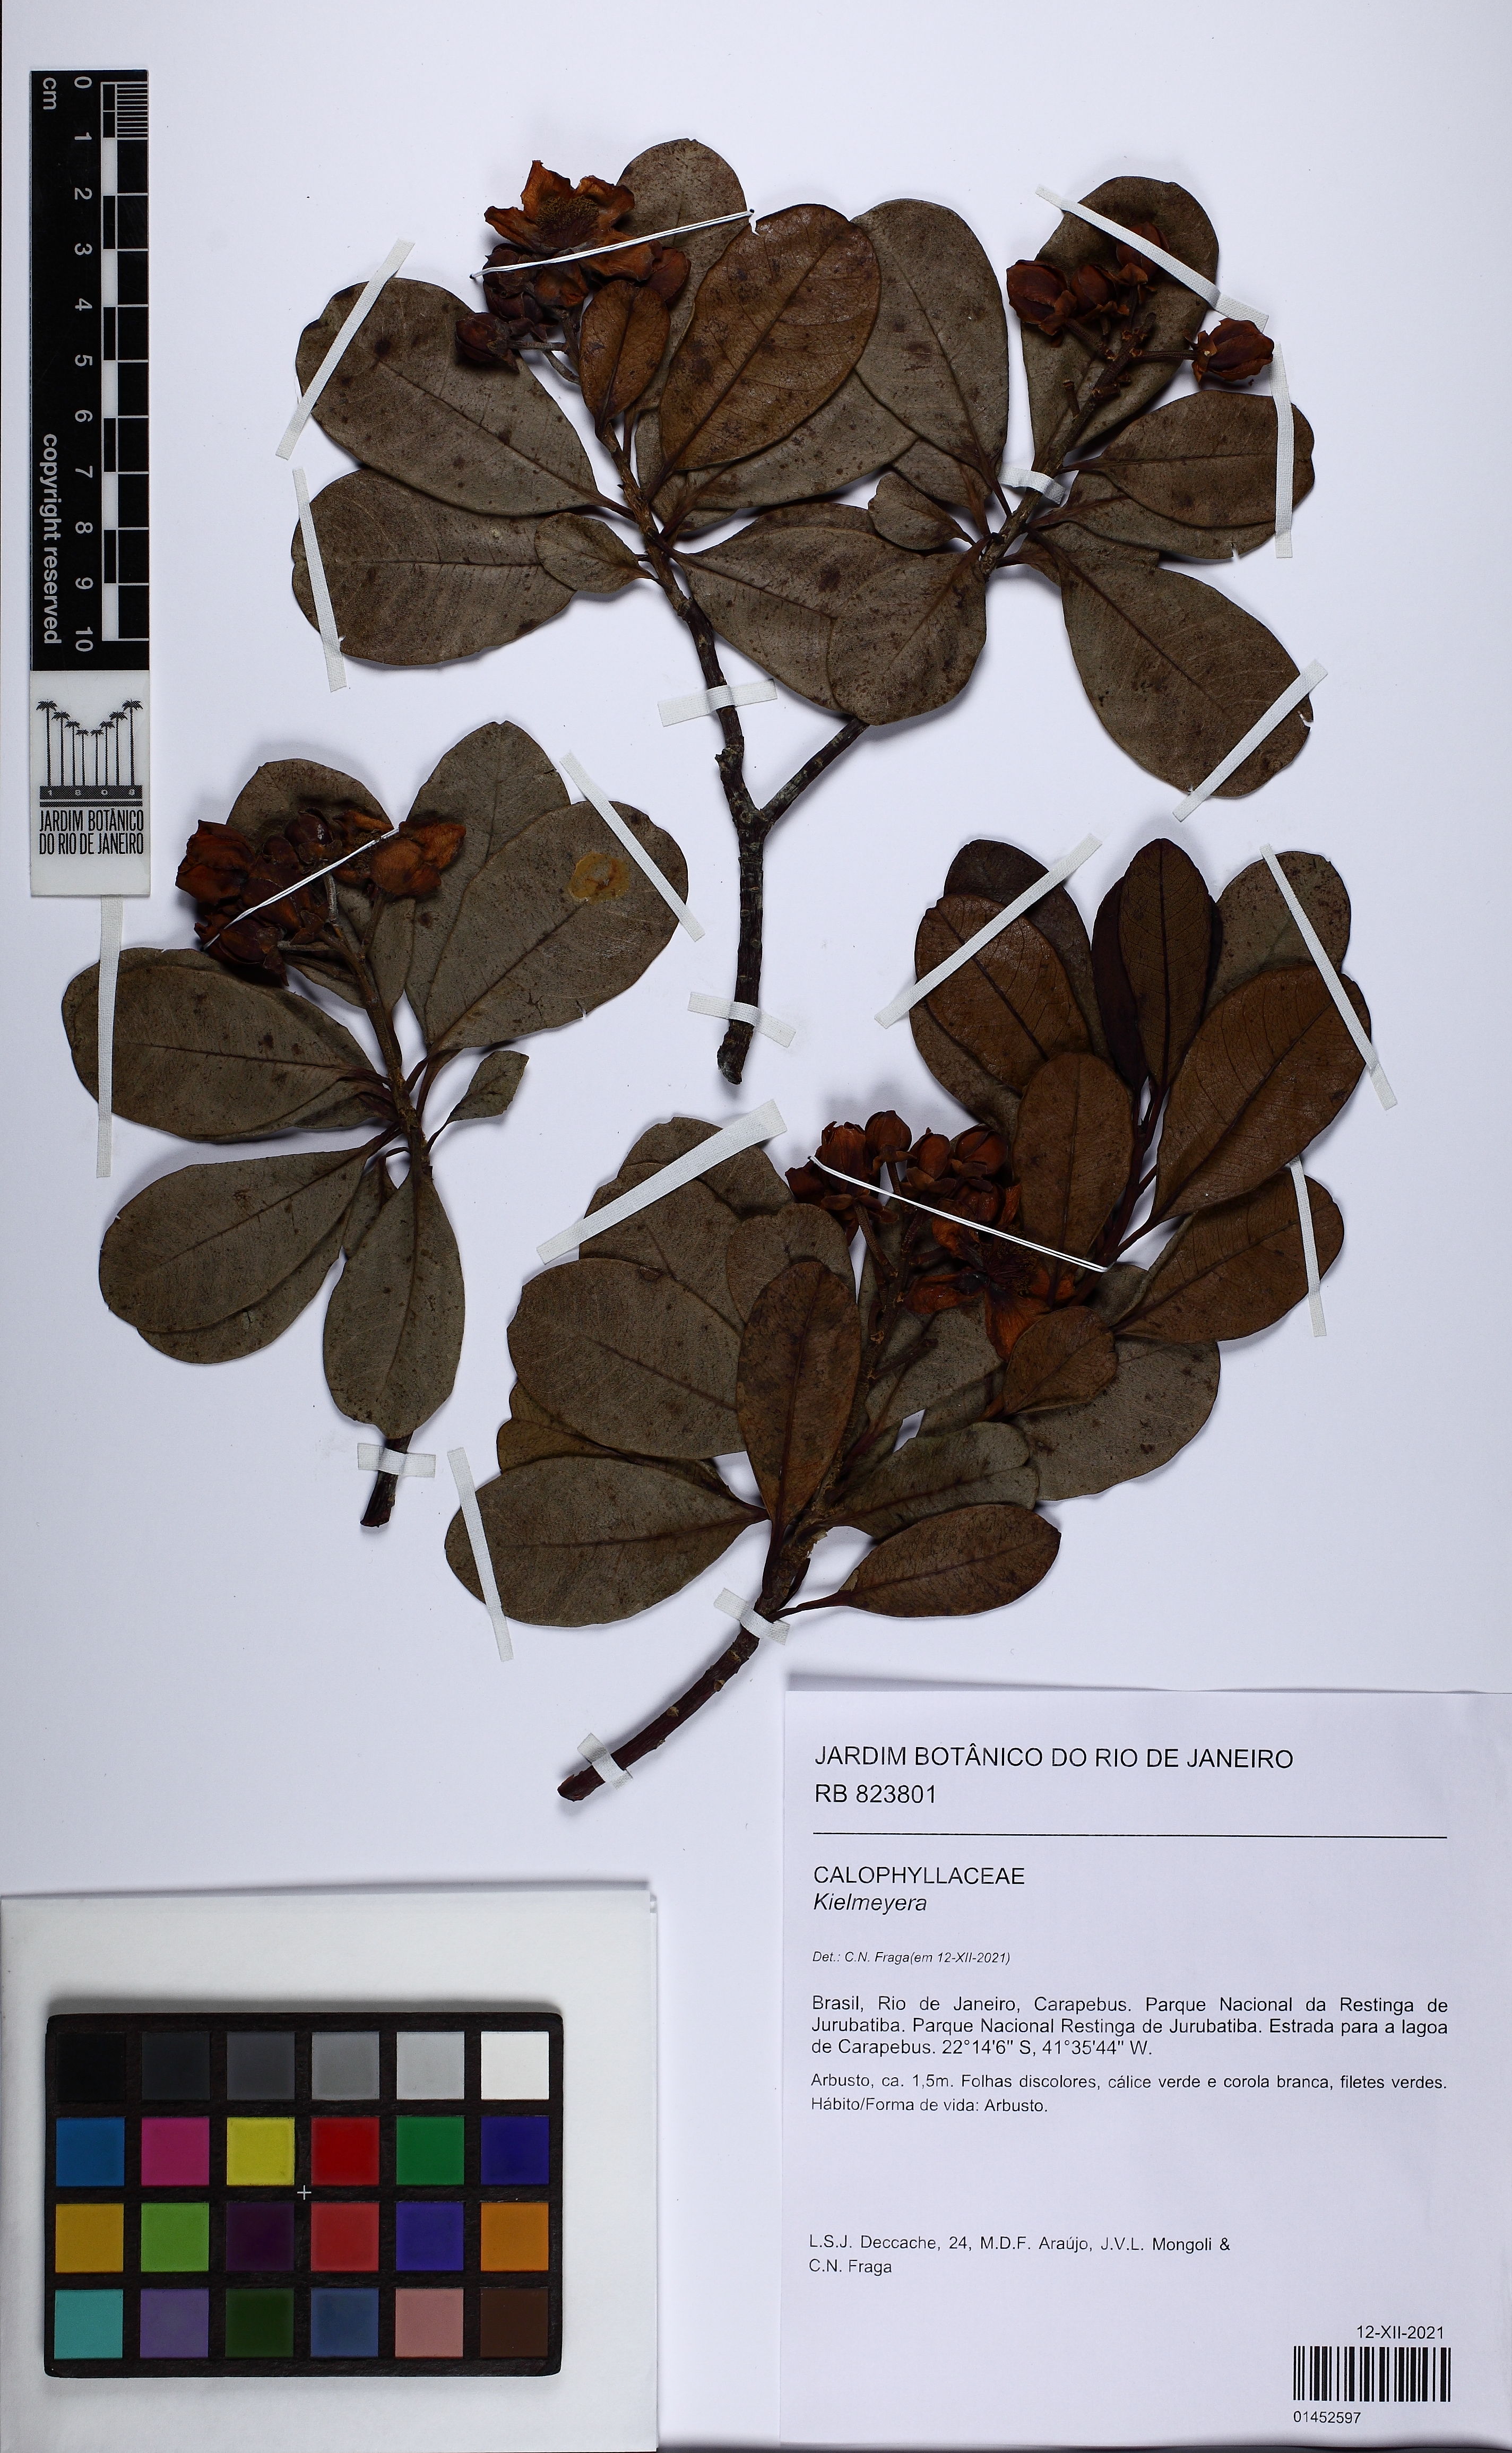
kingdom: Plantae
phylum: Tracheophyta
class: Magnoliopsida
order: Malpighiales
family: Calophyllaceae
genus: Kielmeyera
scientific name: Kielmeyera
